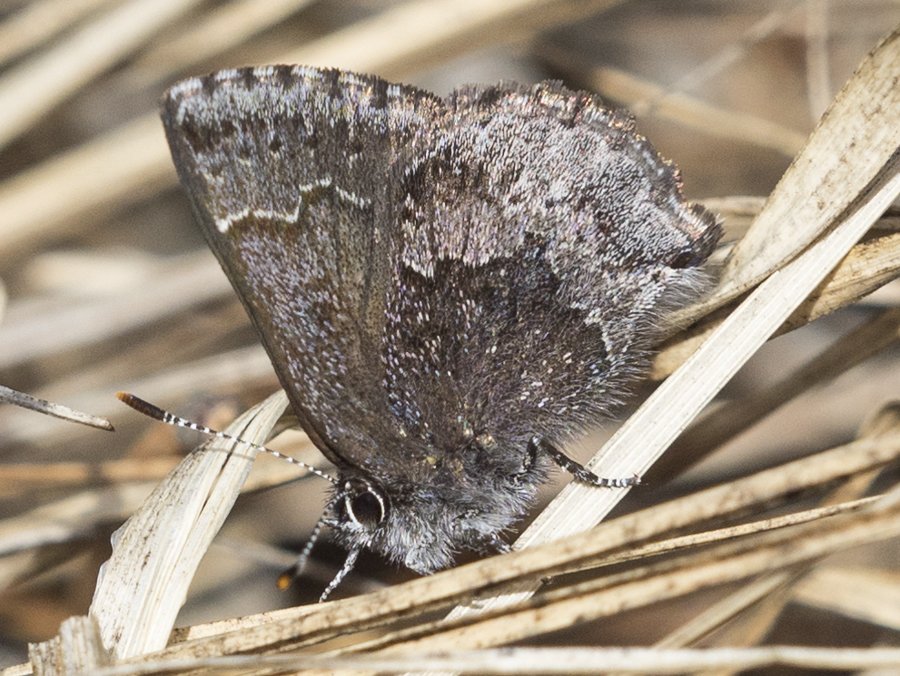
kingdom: Animalia
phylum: Arthropoda
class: Insecta
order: Lepidoptera
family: Lycaenidae
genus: Callophrys
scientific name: Callophrys polios
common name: Hoary Elfin
